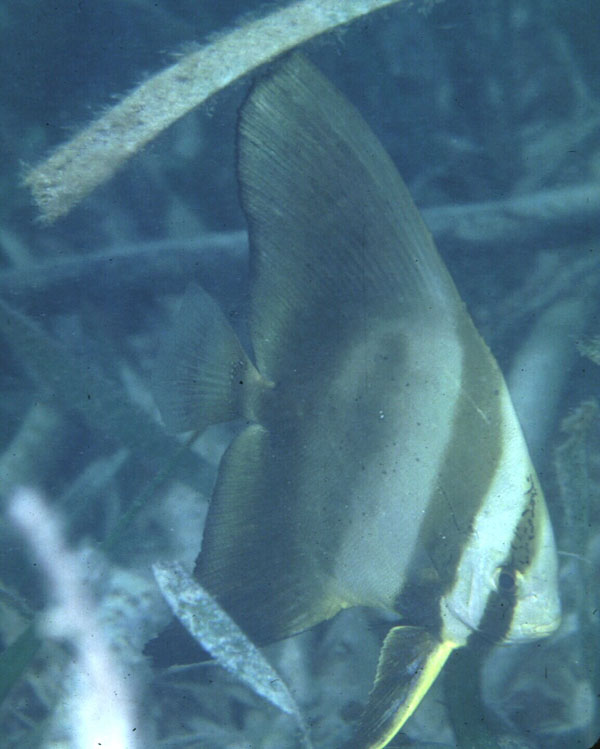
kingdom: Animalia
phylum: Chordata
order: Perciformes
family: Ephippidae
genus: Platax
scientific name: Platax orbicularis
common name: Batfish
